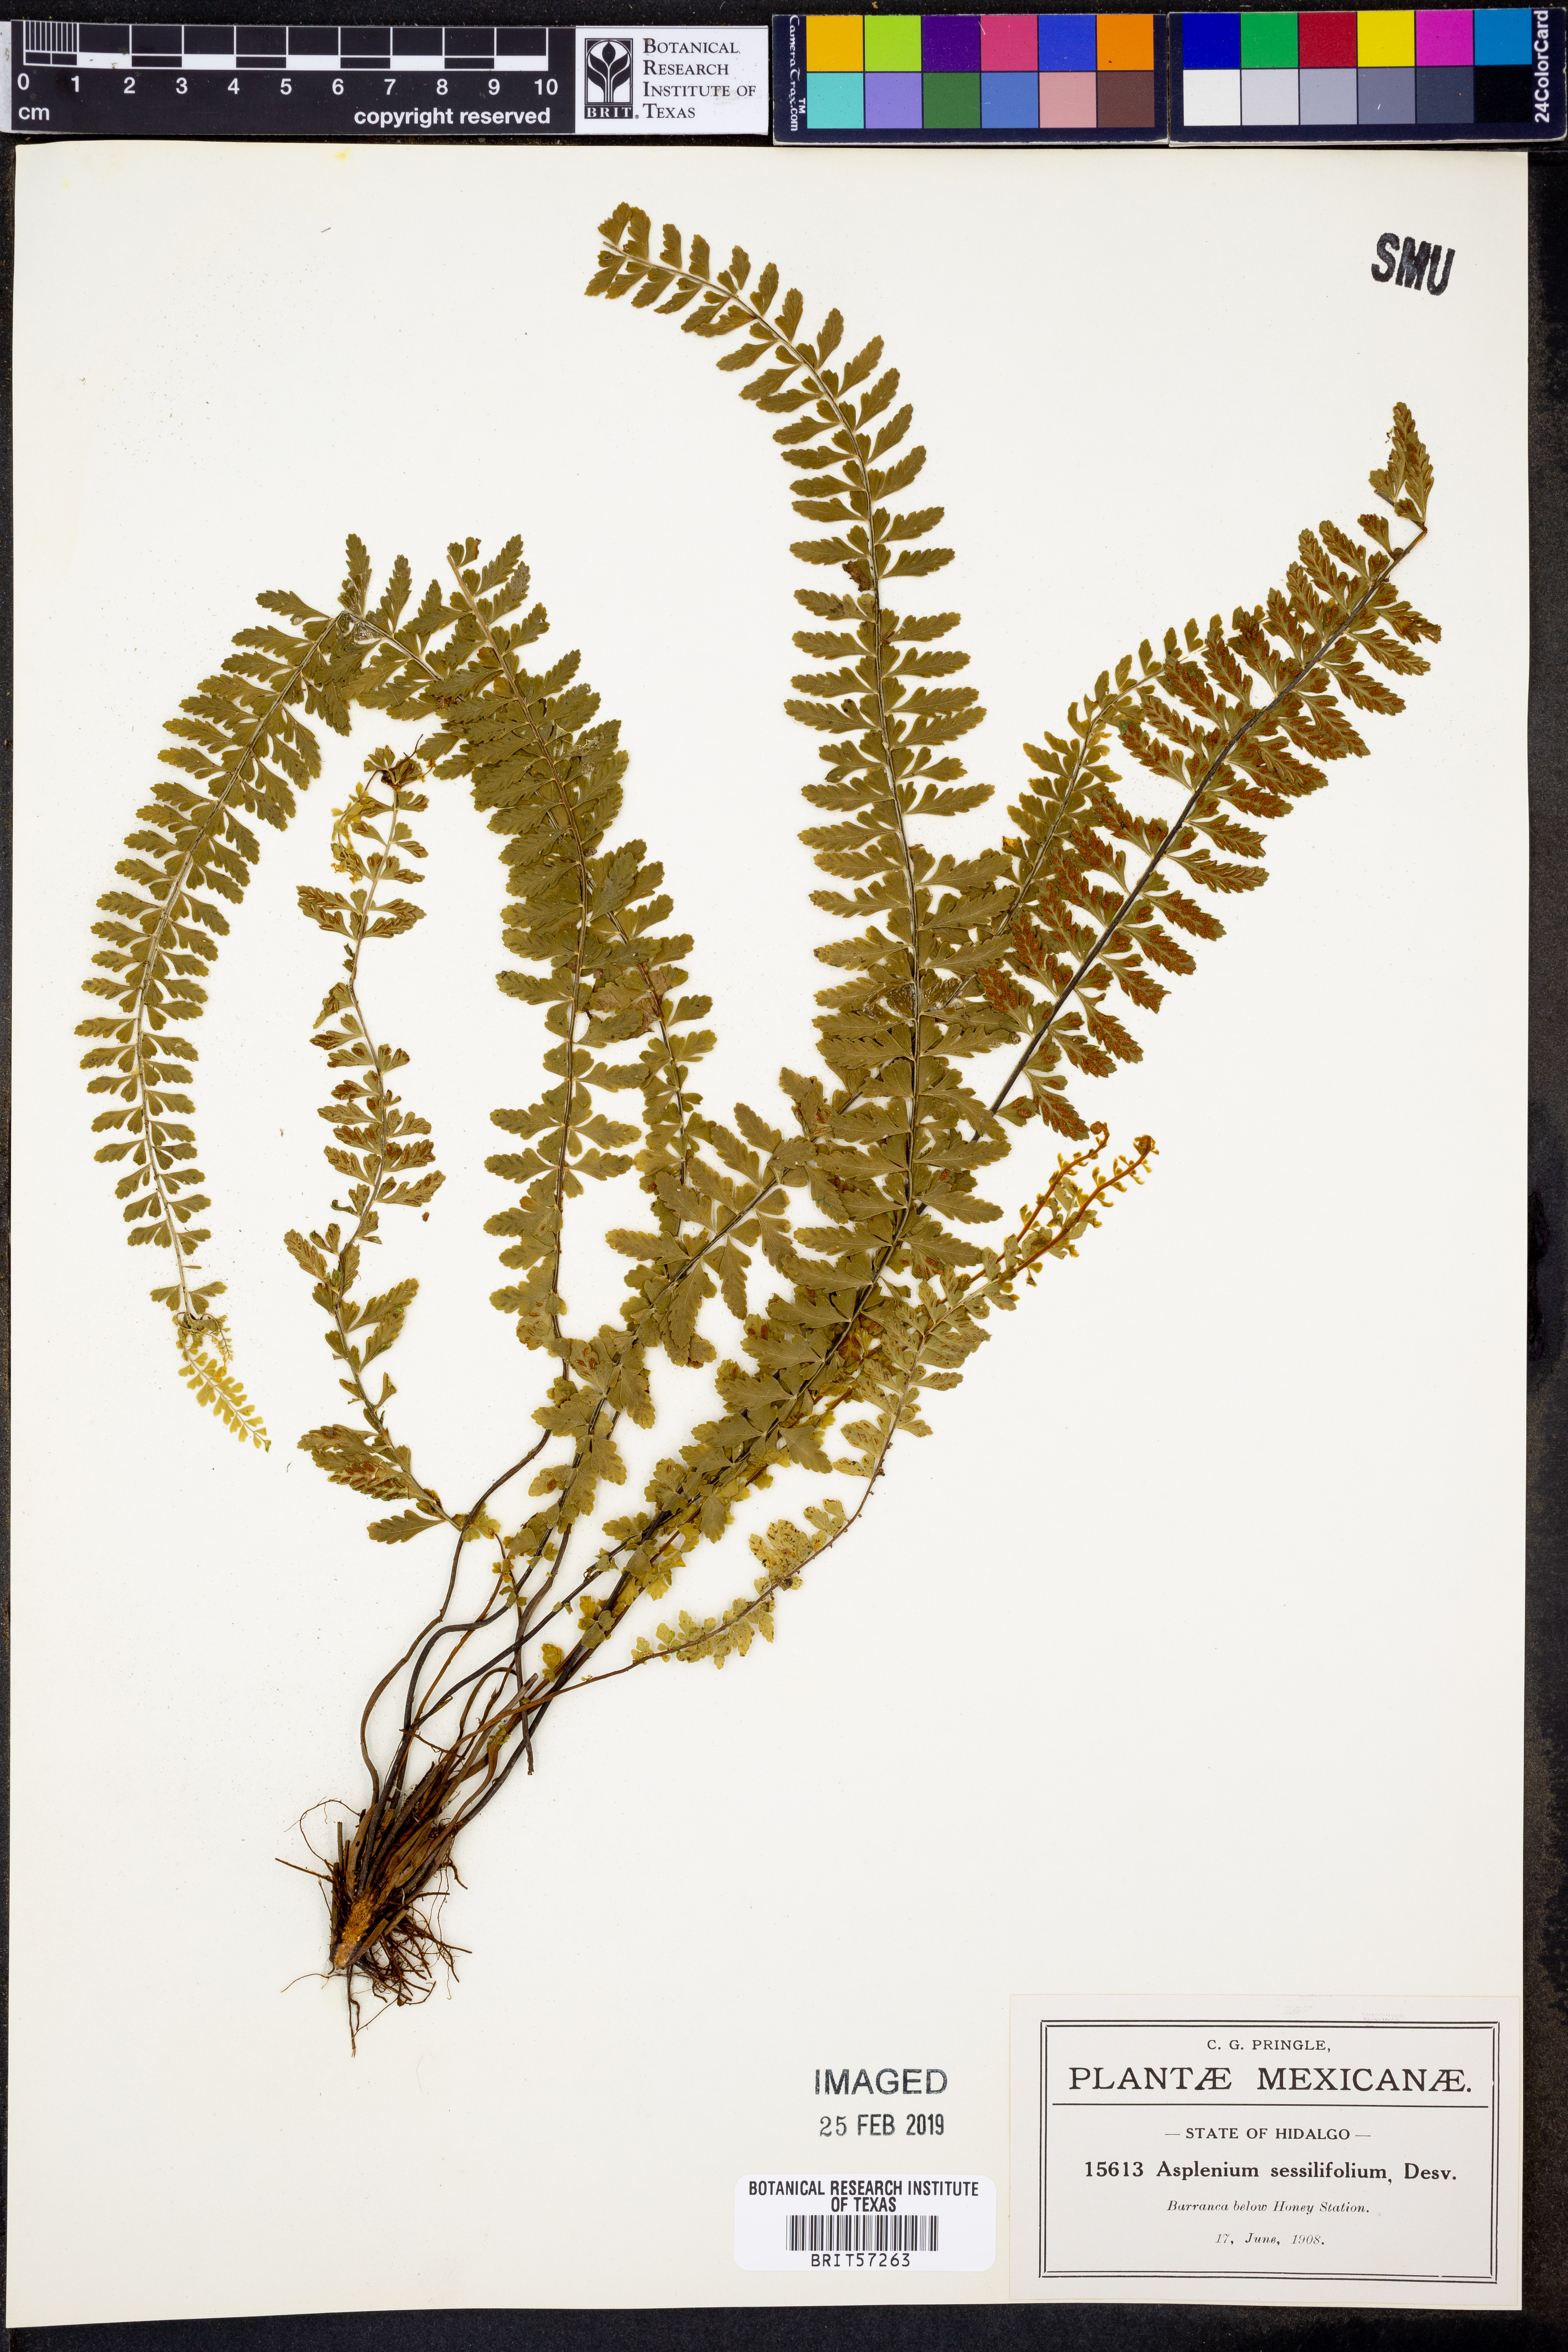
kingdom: Plantae
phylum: Tracheophyta
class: Polypodiopsida
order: Polypodiales
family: Aspleniaceae
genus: Asplenium
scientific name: Asplenium sessilifolium
